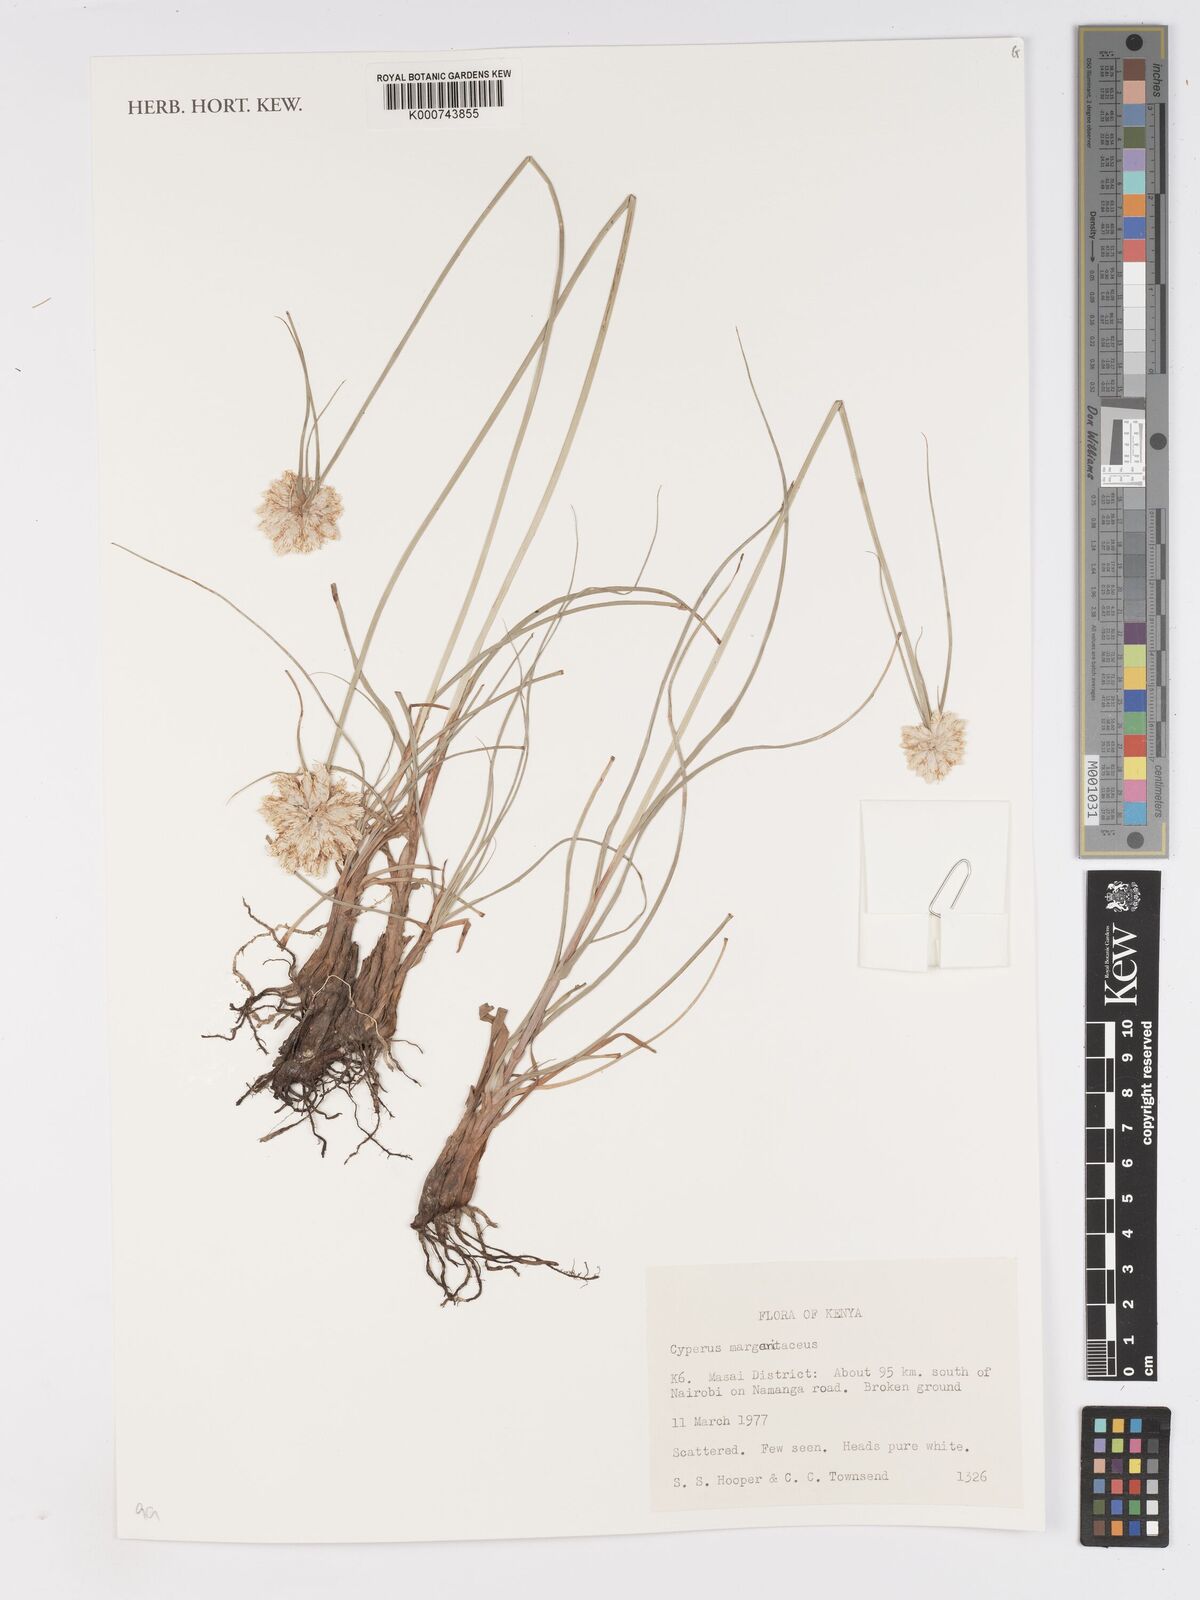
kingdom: Plantae
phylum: Tracheophyta
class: Liliopsida
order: Poales
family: Cyperaceae
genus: Cyperus
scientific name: Cyperus margaritaceus
